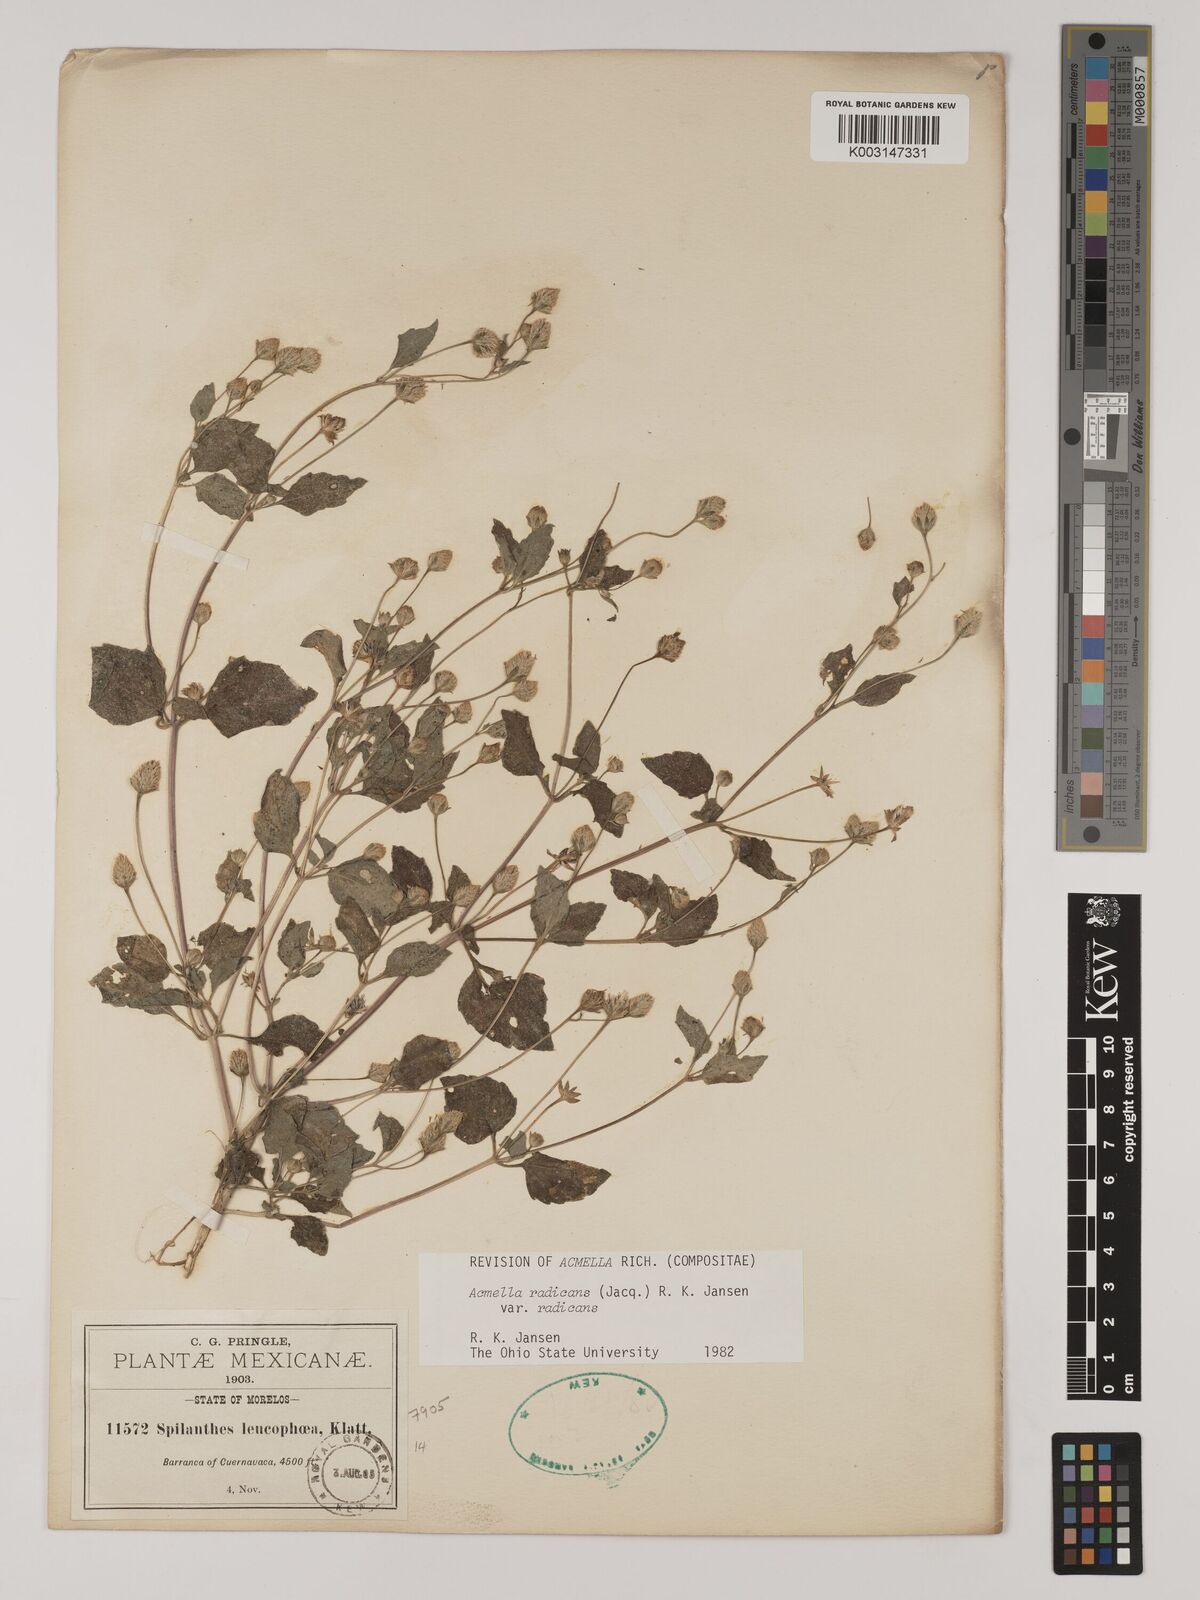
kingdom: Plantae
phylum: Tracheophyta
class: Magnoliopsida
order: Asterales
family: Asteraceae
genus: Acmella
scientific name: Acmella radicans
